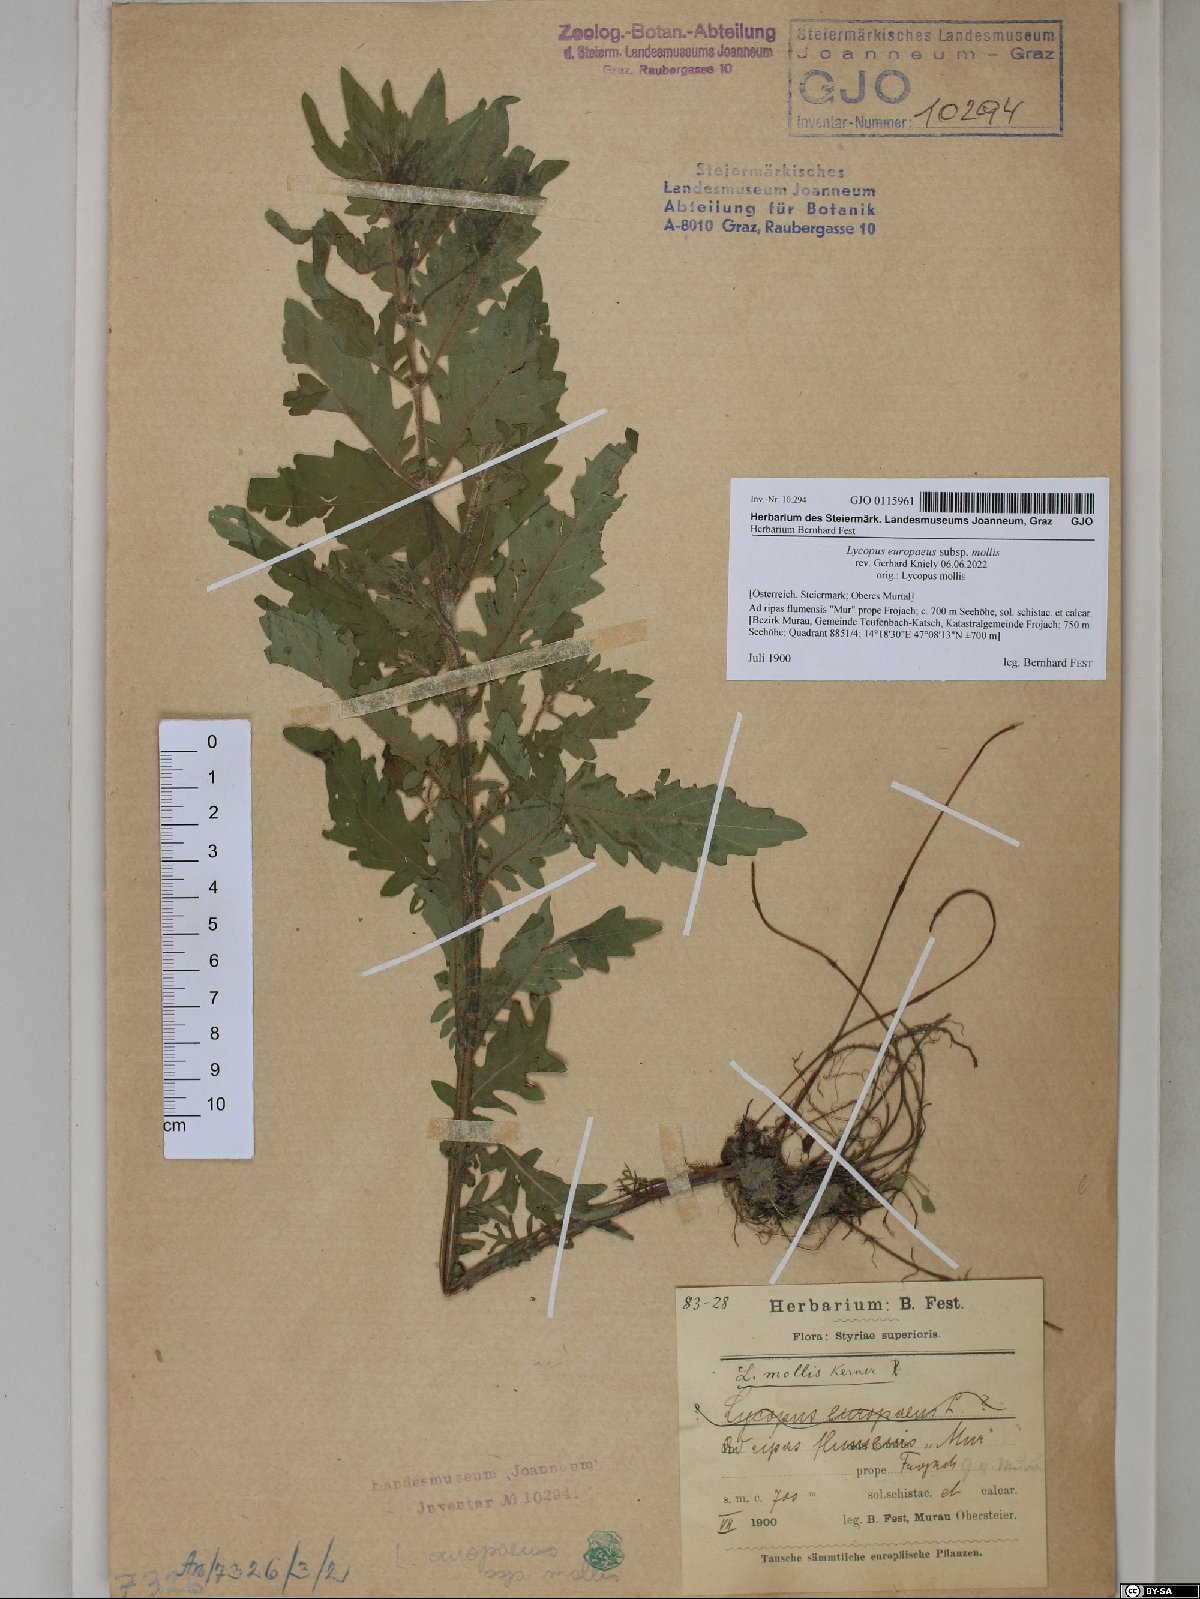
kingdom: Plantae
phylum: Tracheophyta
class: Magnoliopsida
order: Lamiales
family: Lamiaceae
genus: Lycopus
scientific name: Lycopus europaeus
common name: European bugleweed
